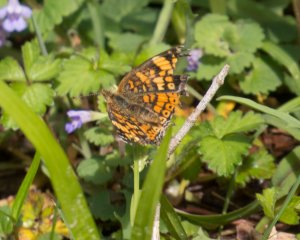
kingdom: Animalia
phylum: Arthropoda
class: Insecta
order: Lepidoptera
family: Nymphalidae
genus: Phyciodes
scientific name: Phyciodes tharos
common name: Pearl Crescent
